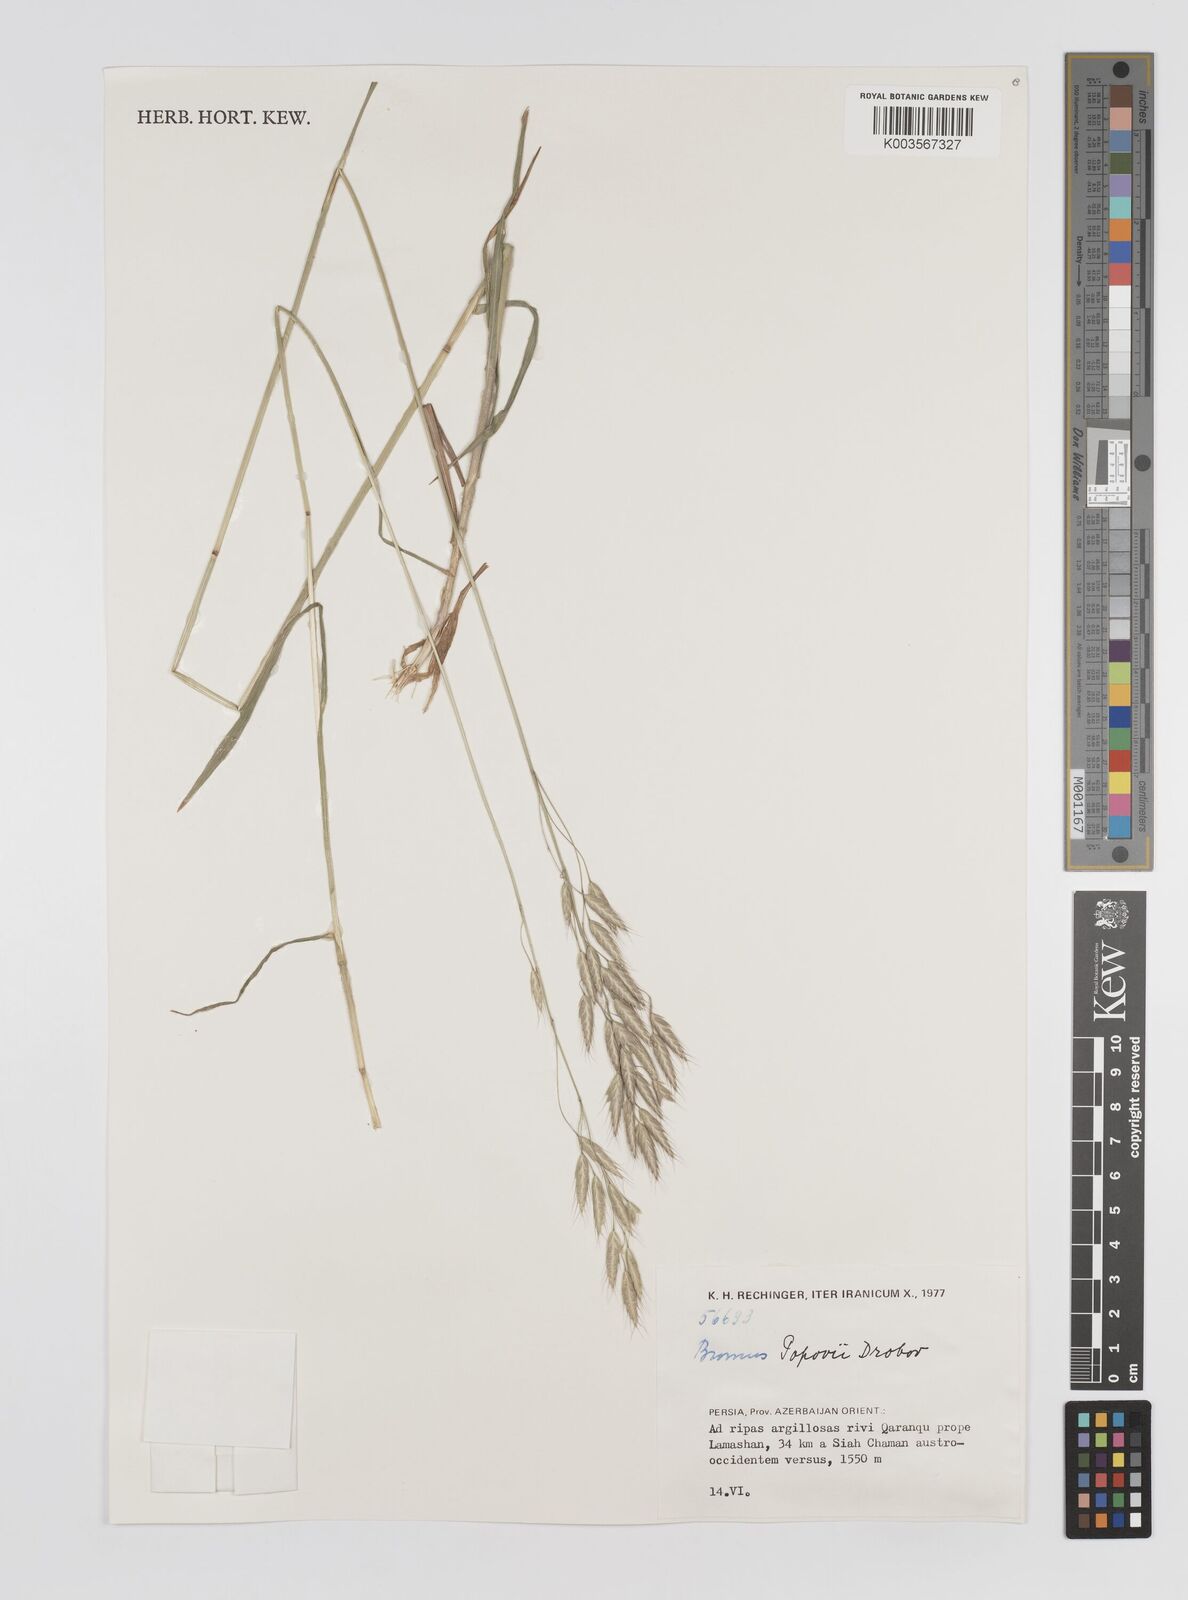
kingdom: Plantae
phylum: Tracheophyta
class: Liliopsida
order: Poales
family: Poaceae
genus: Bromus
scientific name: Bromus pseudobrachystachys
